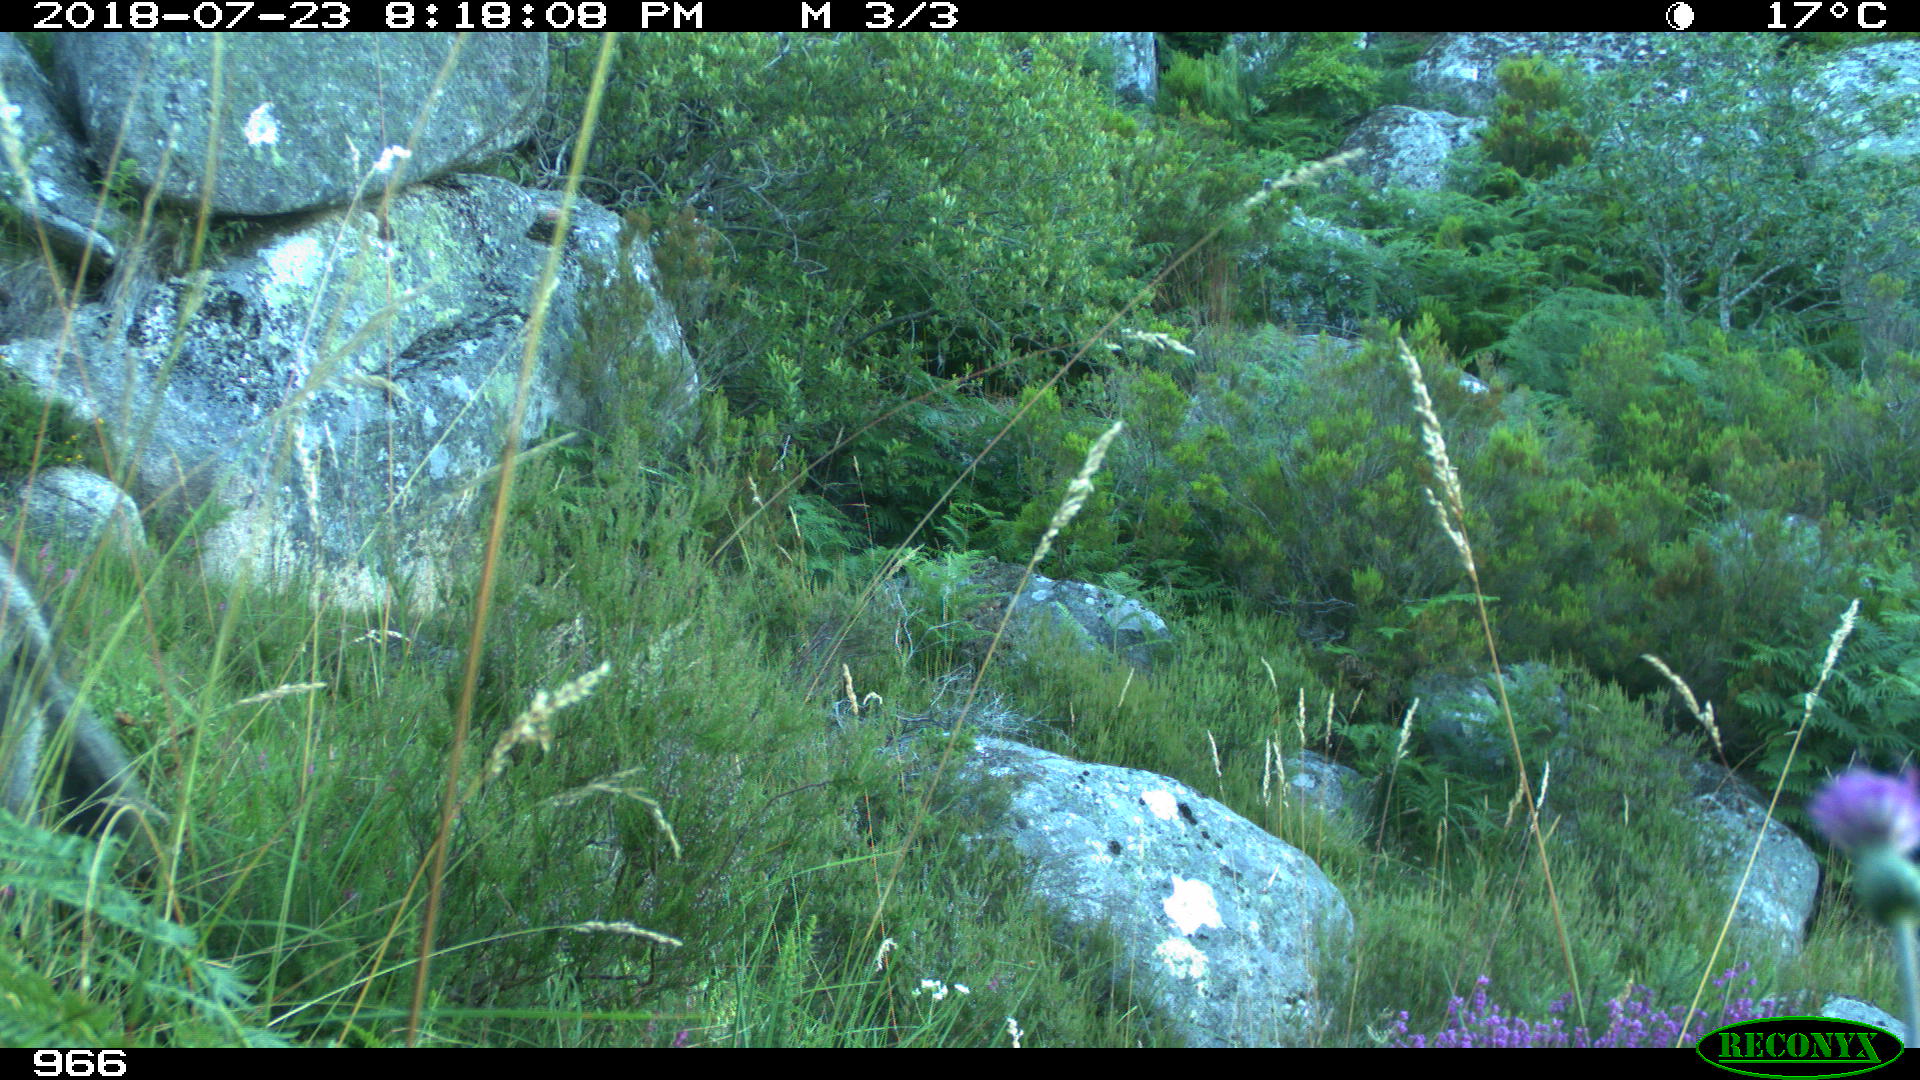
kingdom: Animalia
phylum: Chordata
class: Mammalia
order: Artiodactyla
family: Suidae
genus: Sus
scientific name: Sus scrofa
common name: Wild boar
